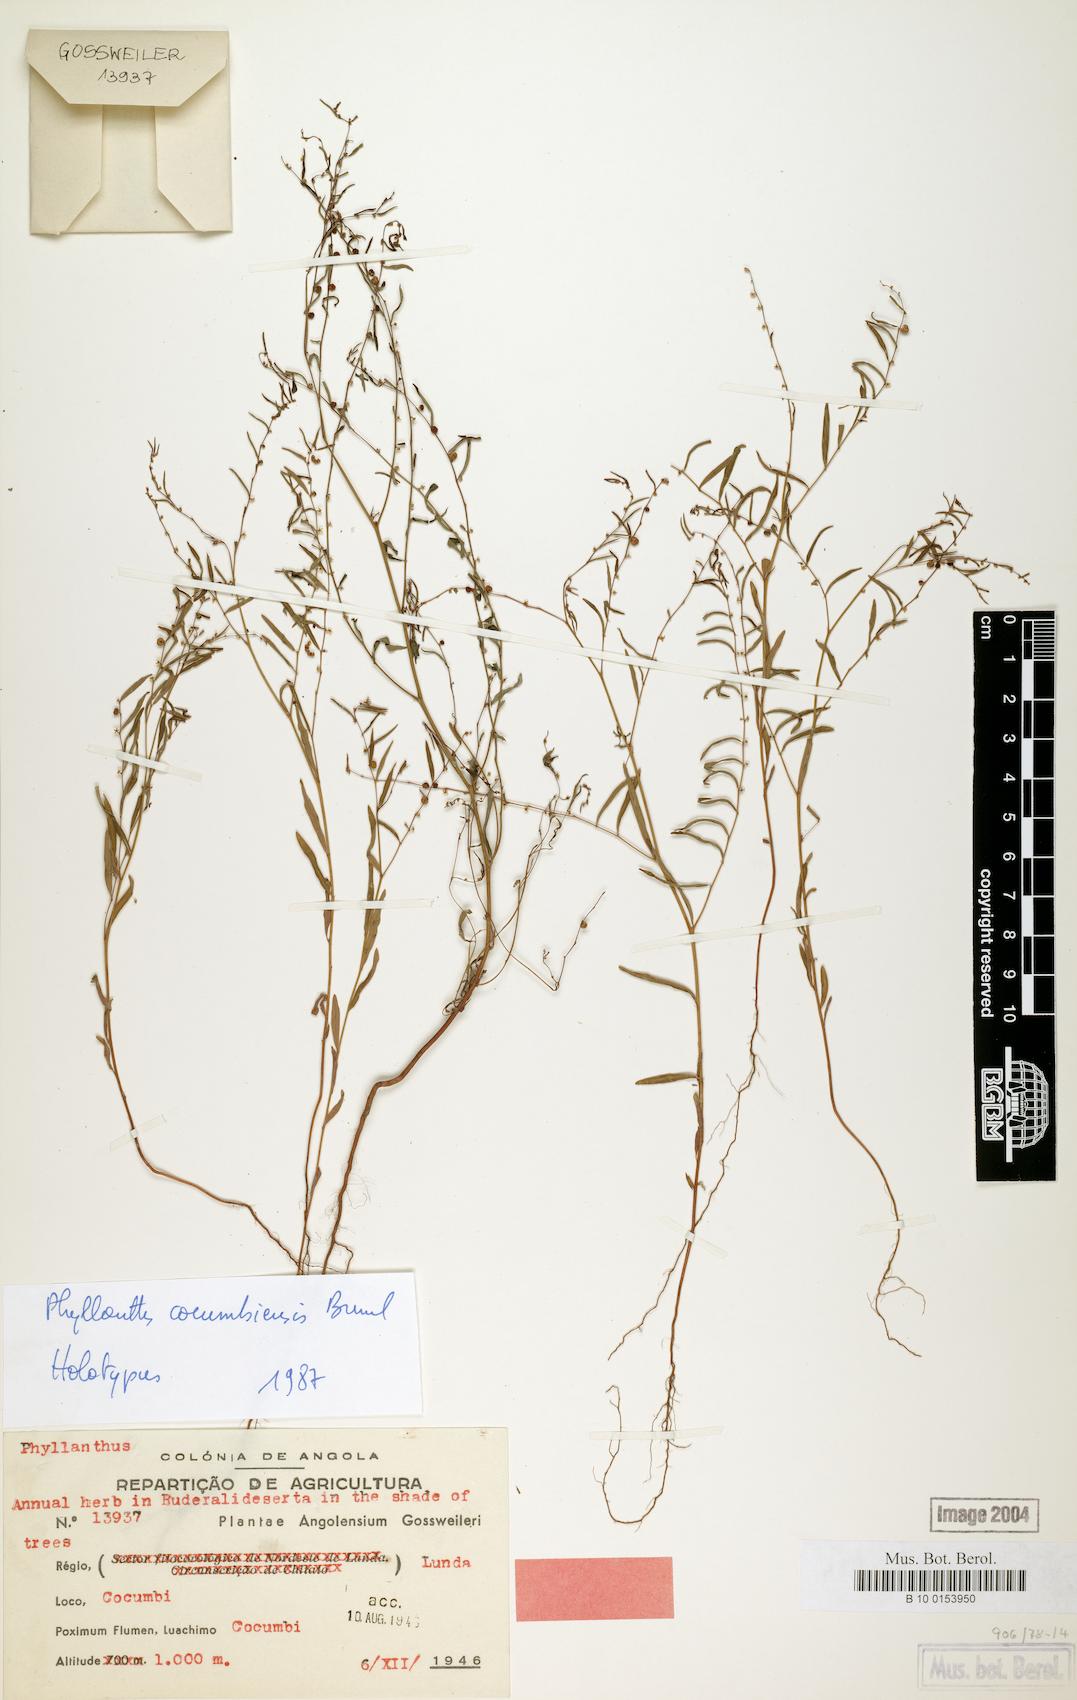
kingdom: Plantae
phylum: Tracheophyta
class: Magnoliopsida
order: Malpighiales
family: Phyllanthaceae
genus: Phyllanthus
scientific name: Phyllanthus cocumbiensis
